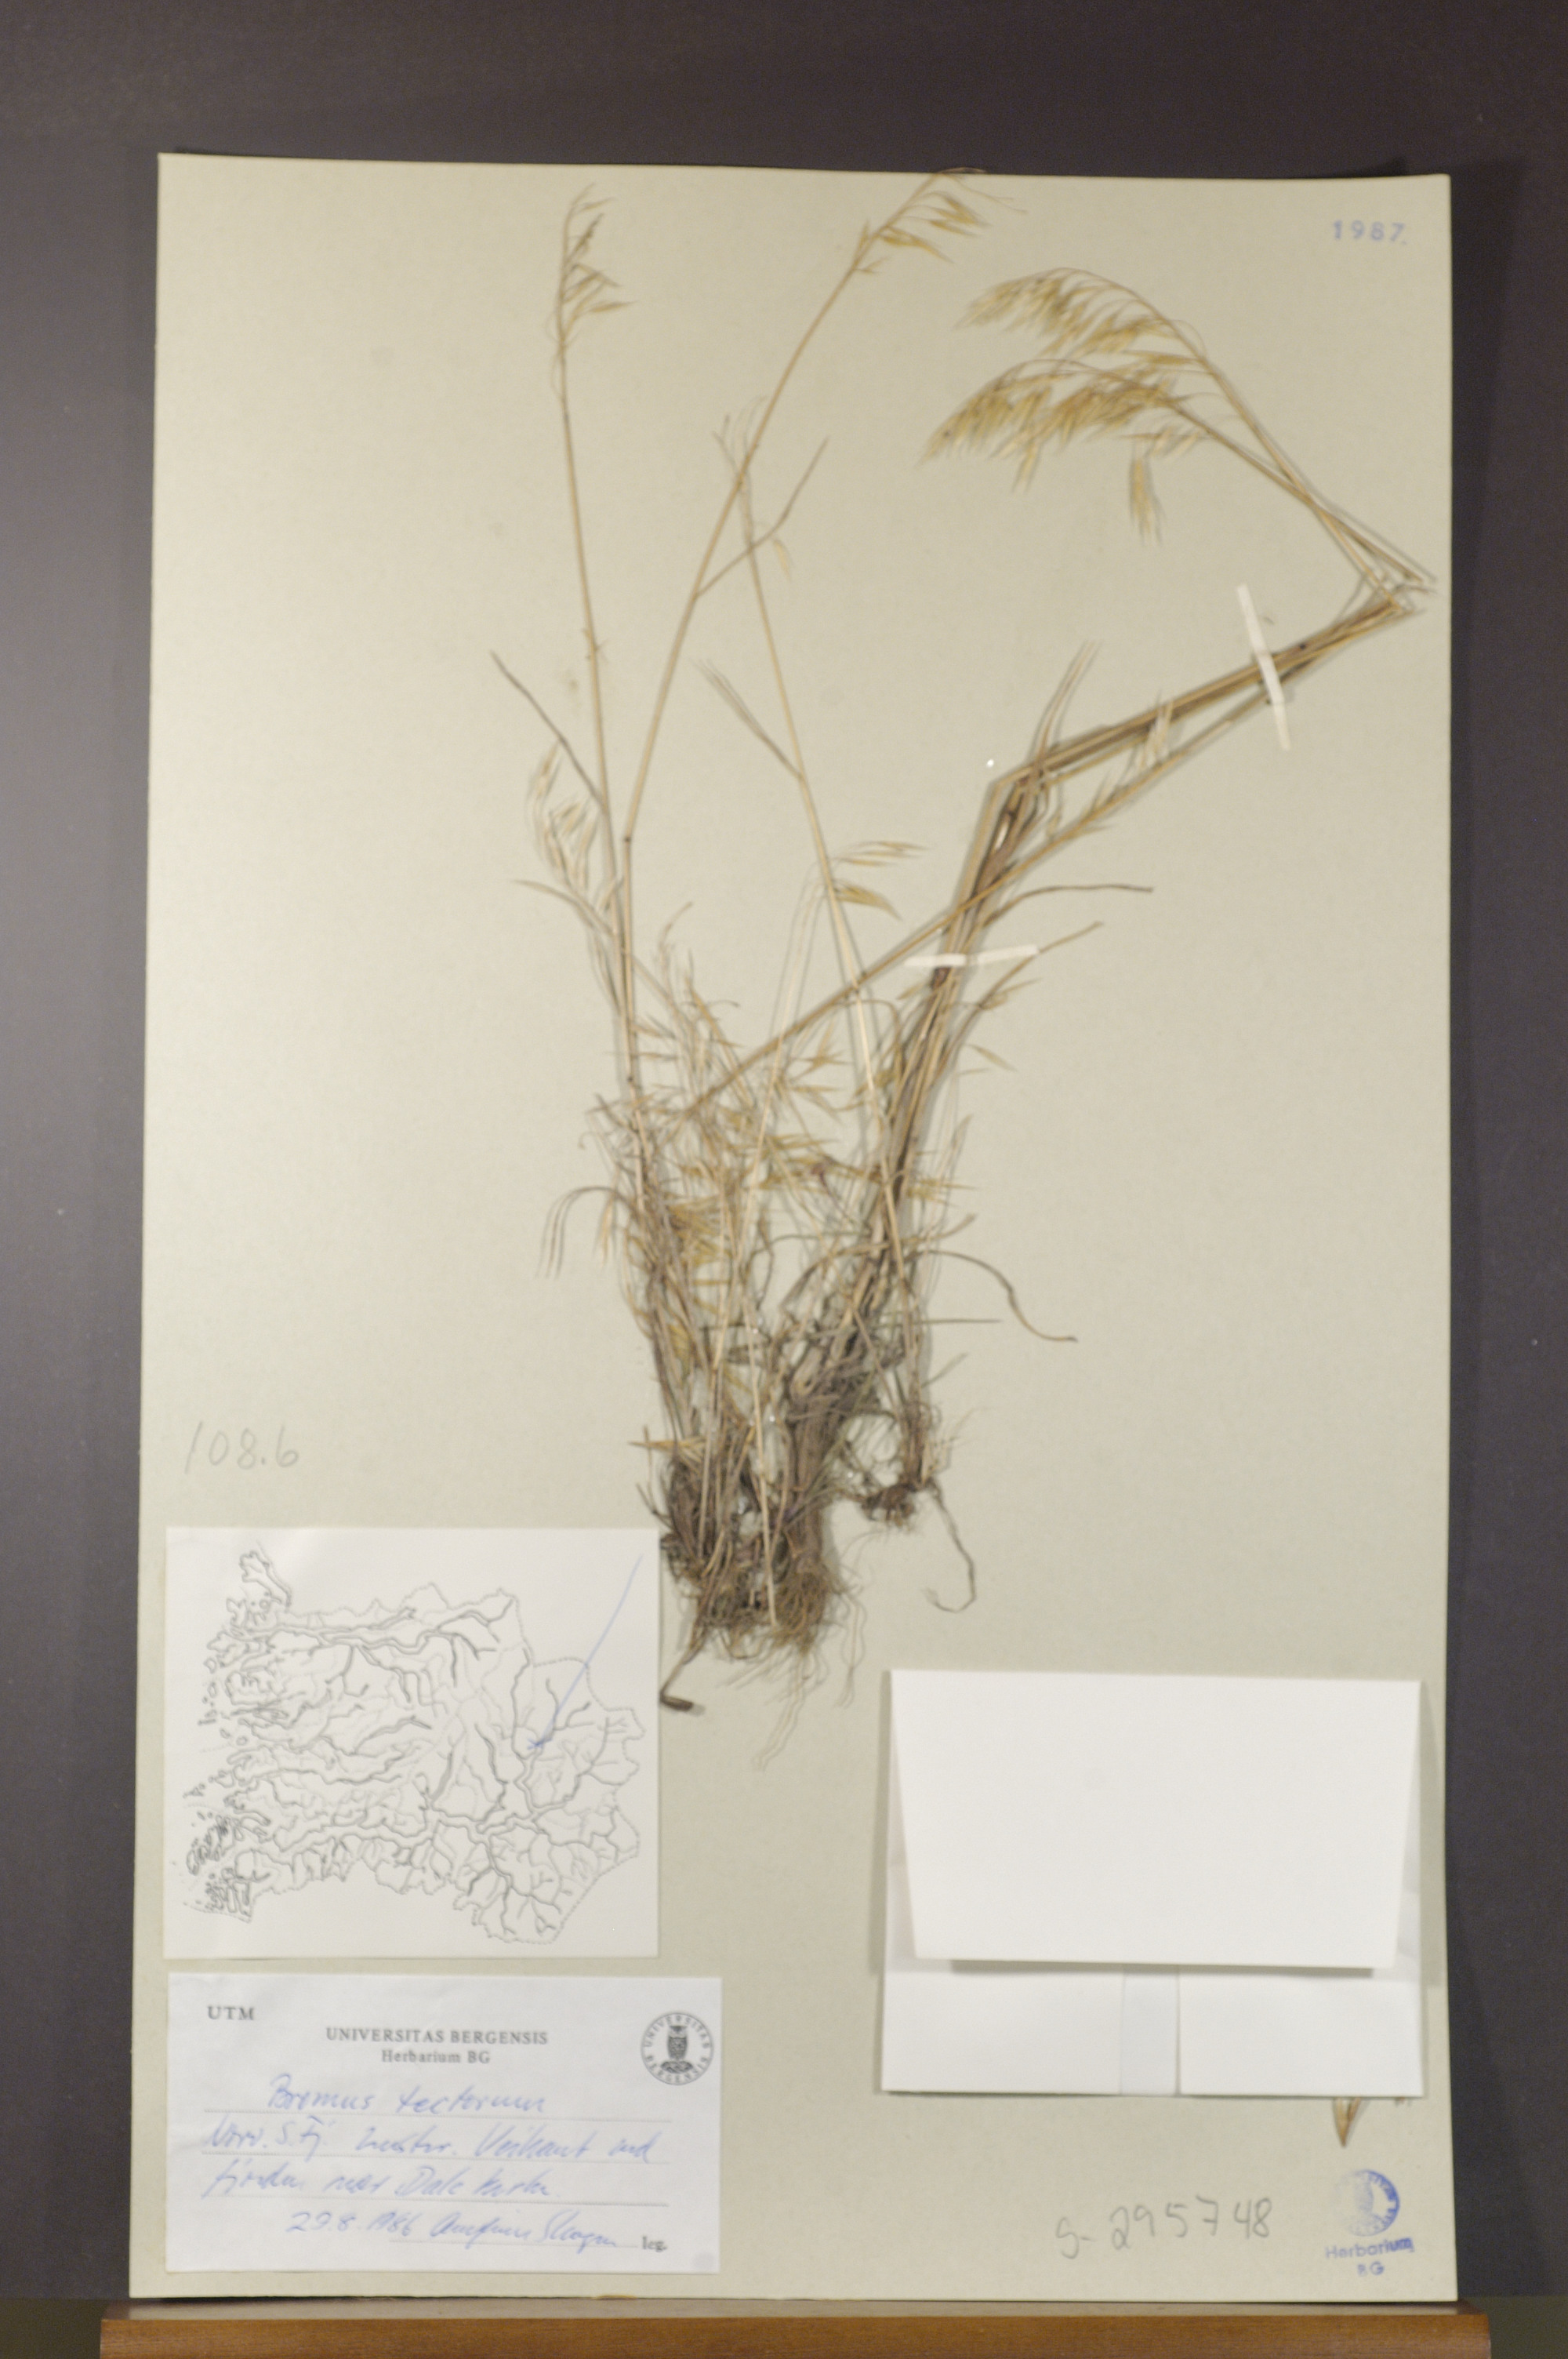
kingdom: Plantae
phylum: Tracheophyta
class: Liliopsida
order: Poales
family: Poaceae
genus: Bromus
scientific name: Bromus tectorum
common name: Cheatgrass
